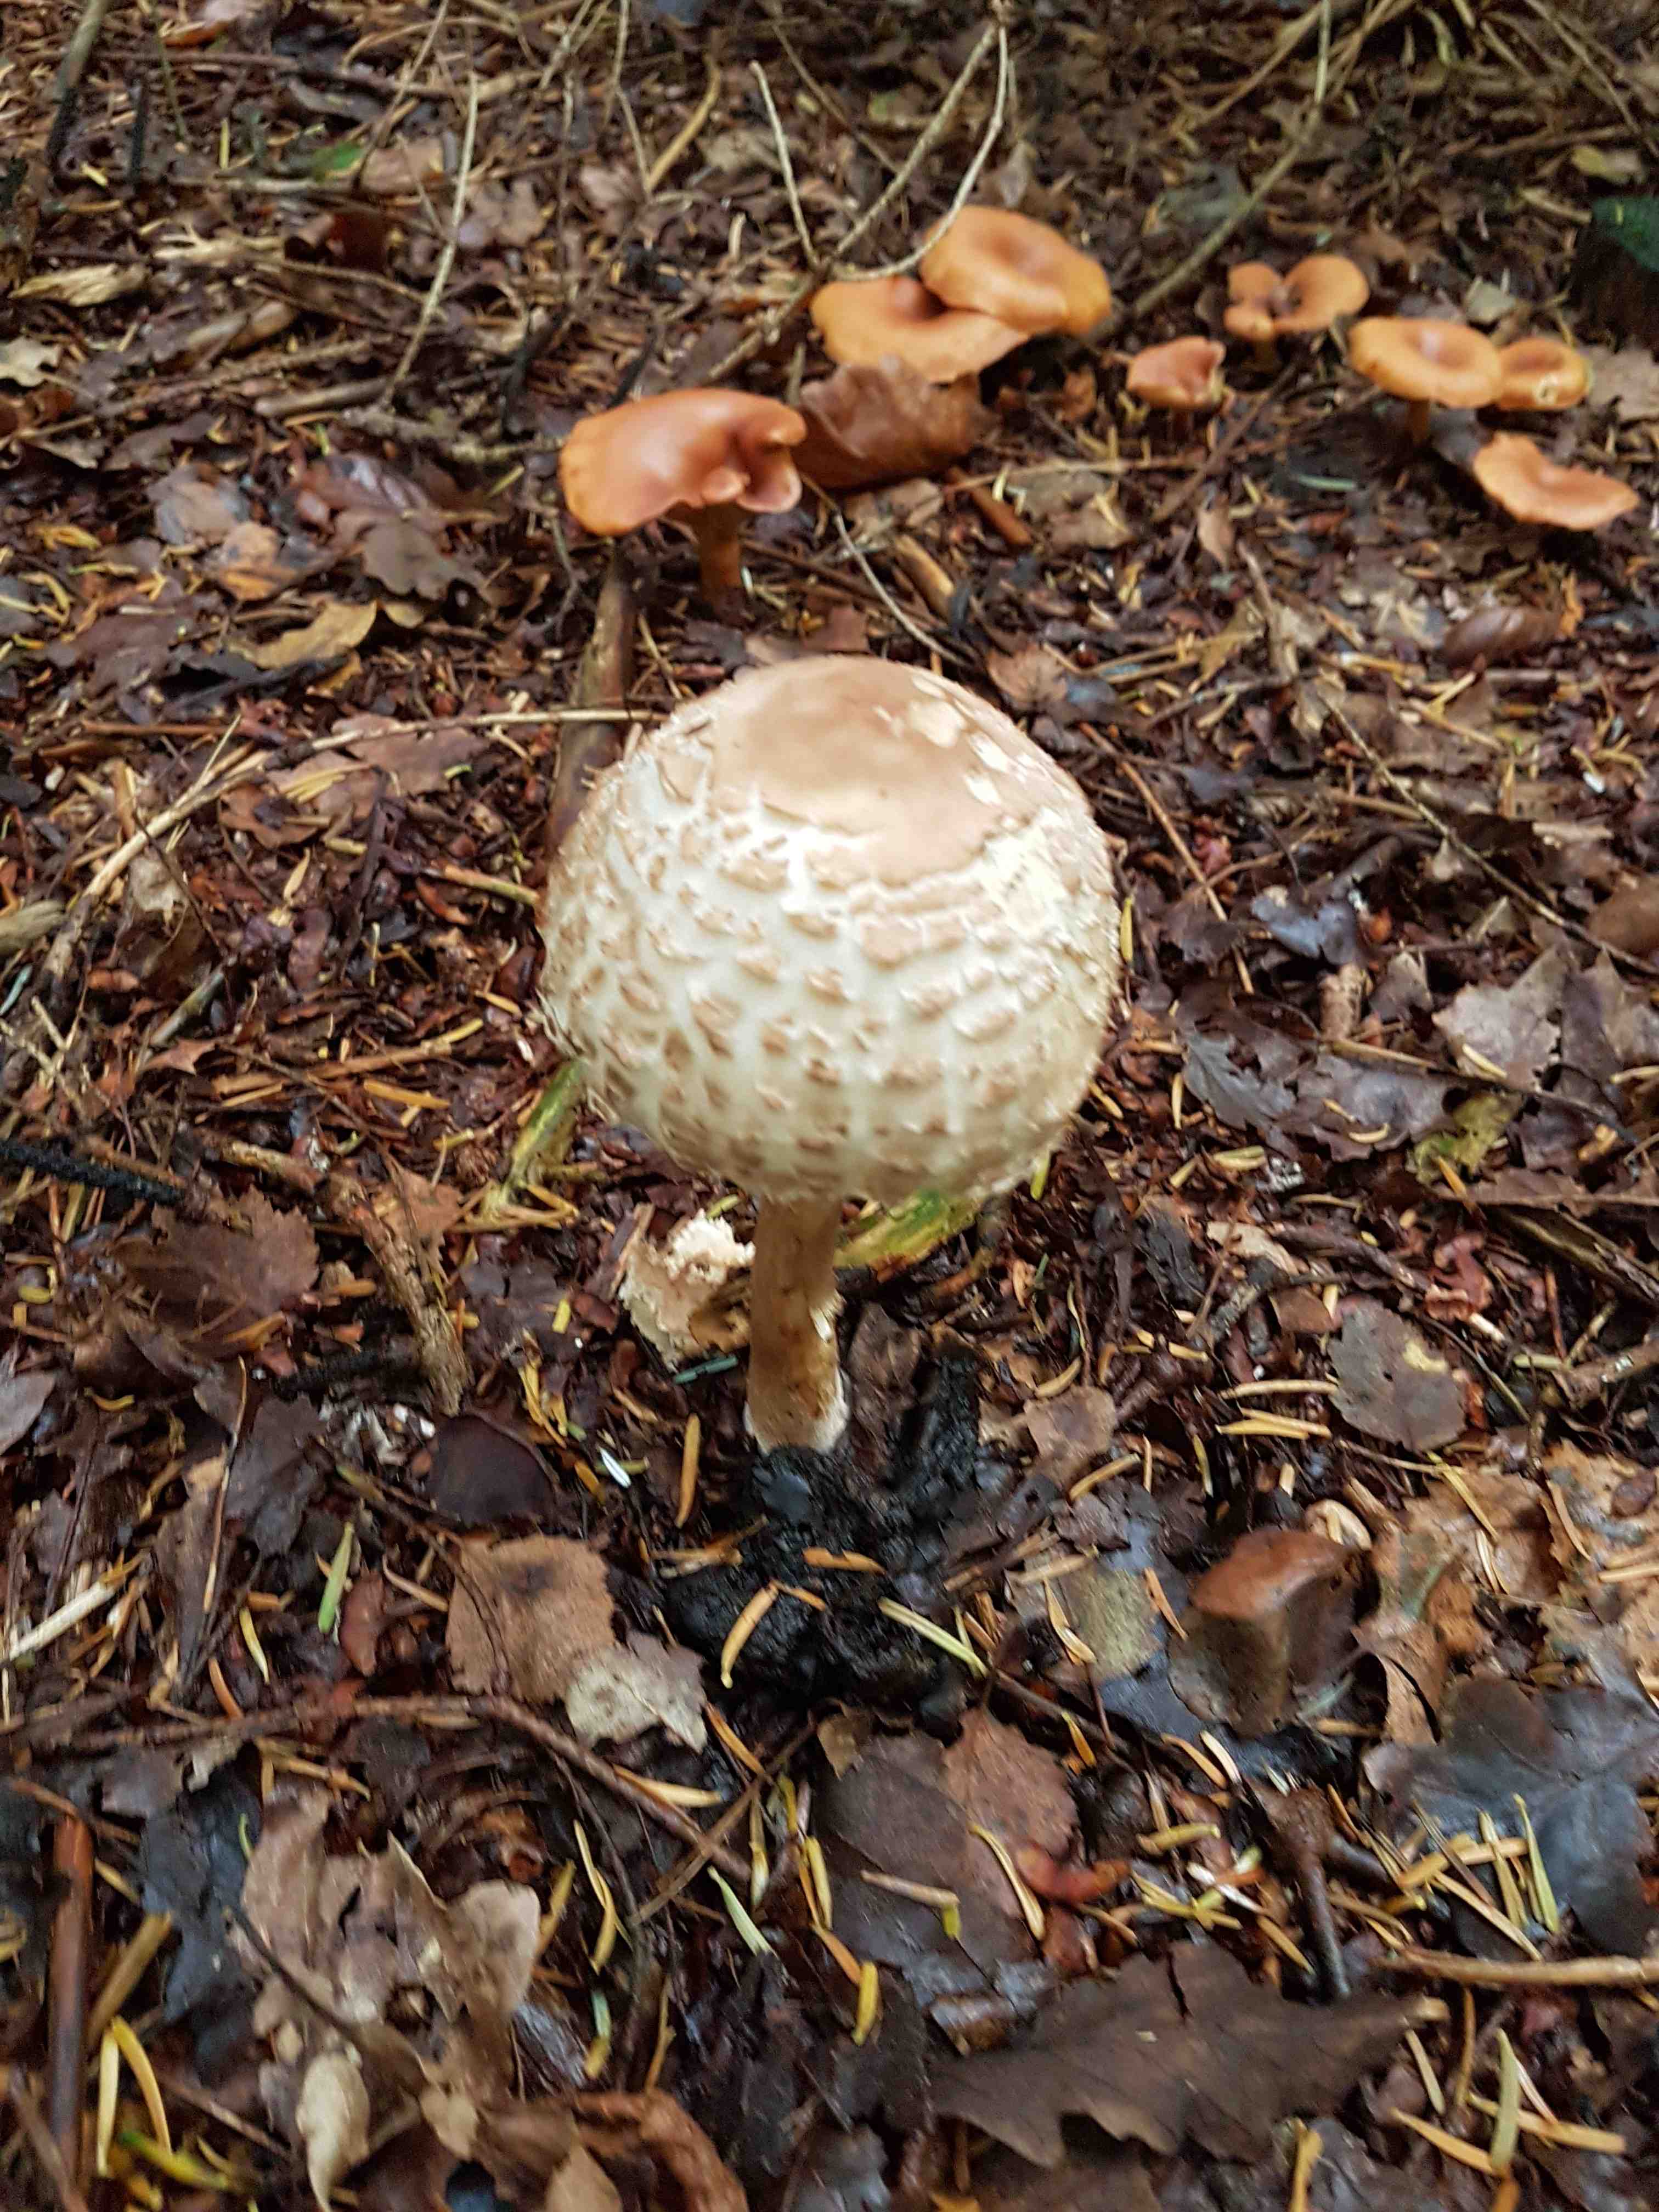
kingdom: Fungi
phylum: Basidiomycota
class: Agaricomycetes
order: Agaricales
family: Agaricaceae
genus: Chlorophyllum
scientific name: Chlorophyllum olivieri
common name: almindelig rabarberhat
